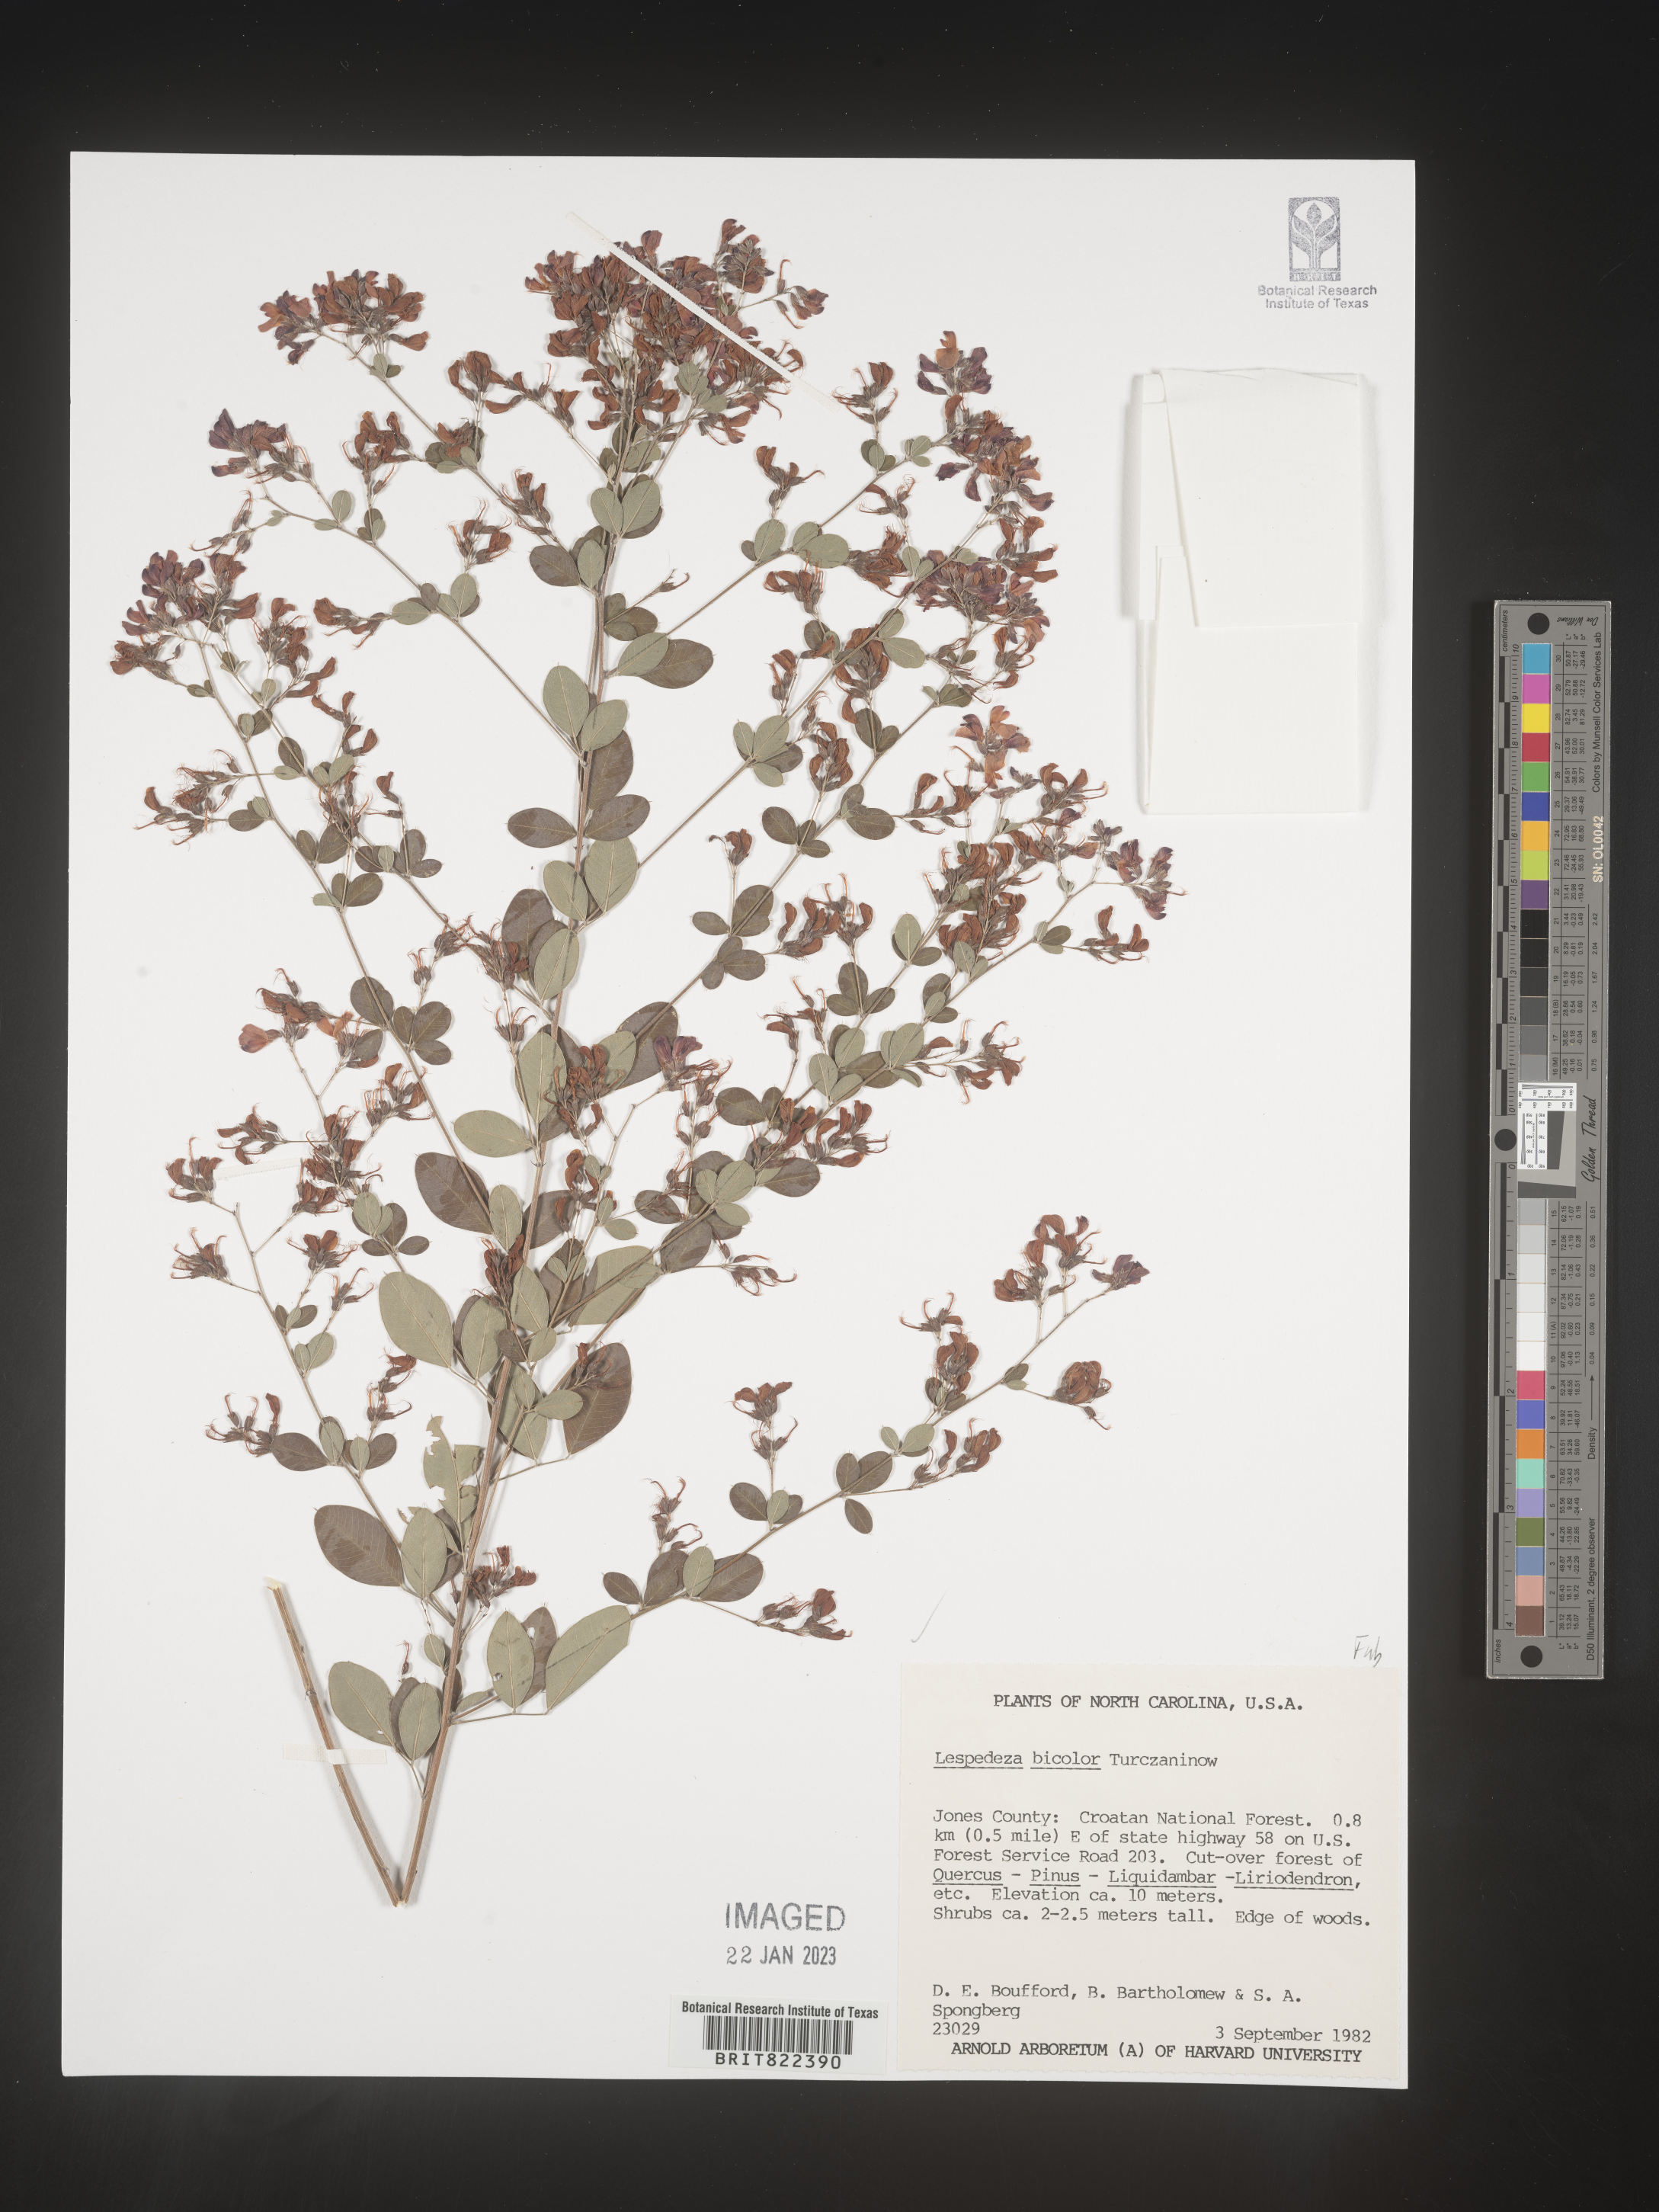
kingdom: Plantae
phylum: Tracheophyta
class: Magnoliopsida
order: Fabales
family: Fabaceae
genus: Lespedeza
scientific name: Lespedeza
